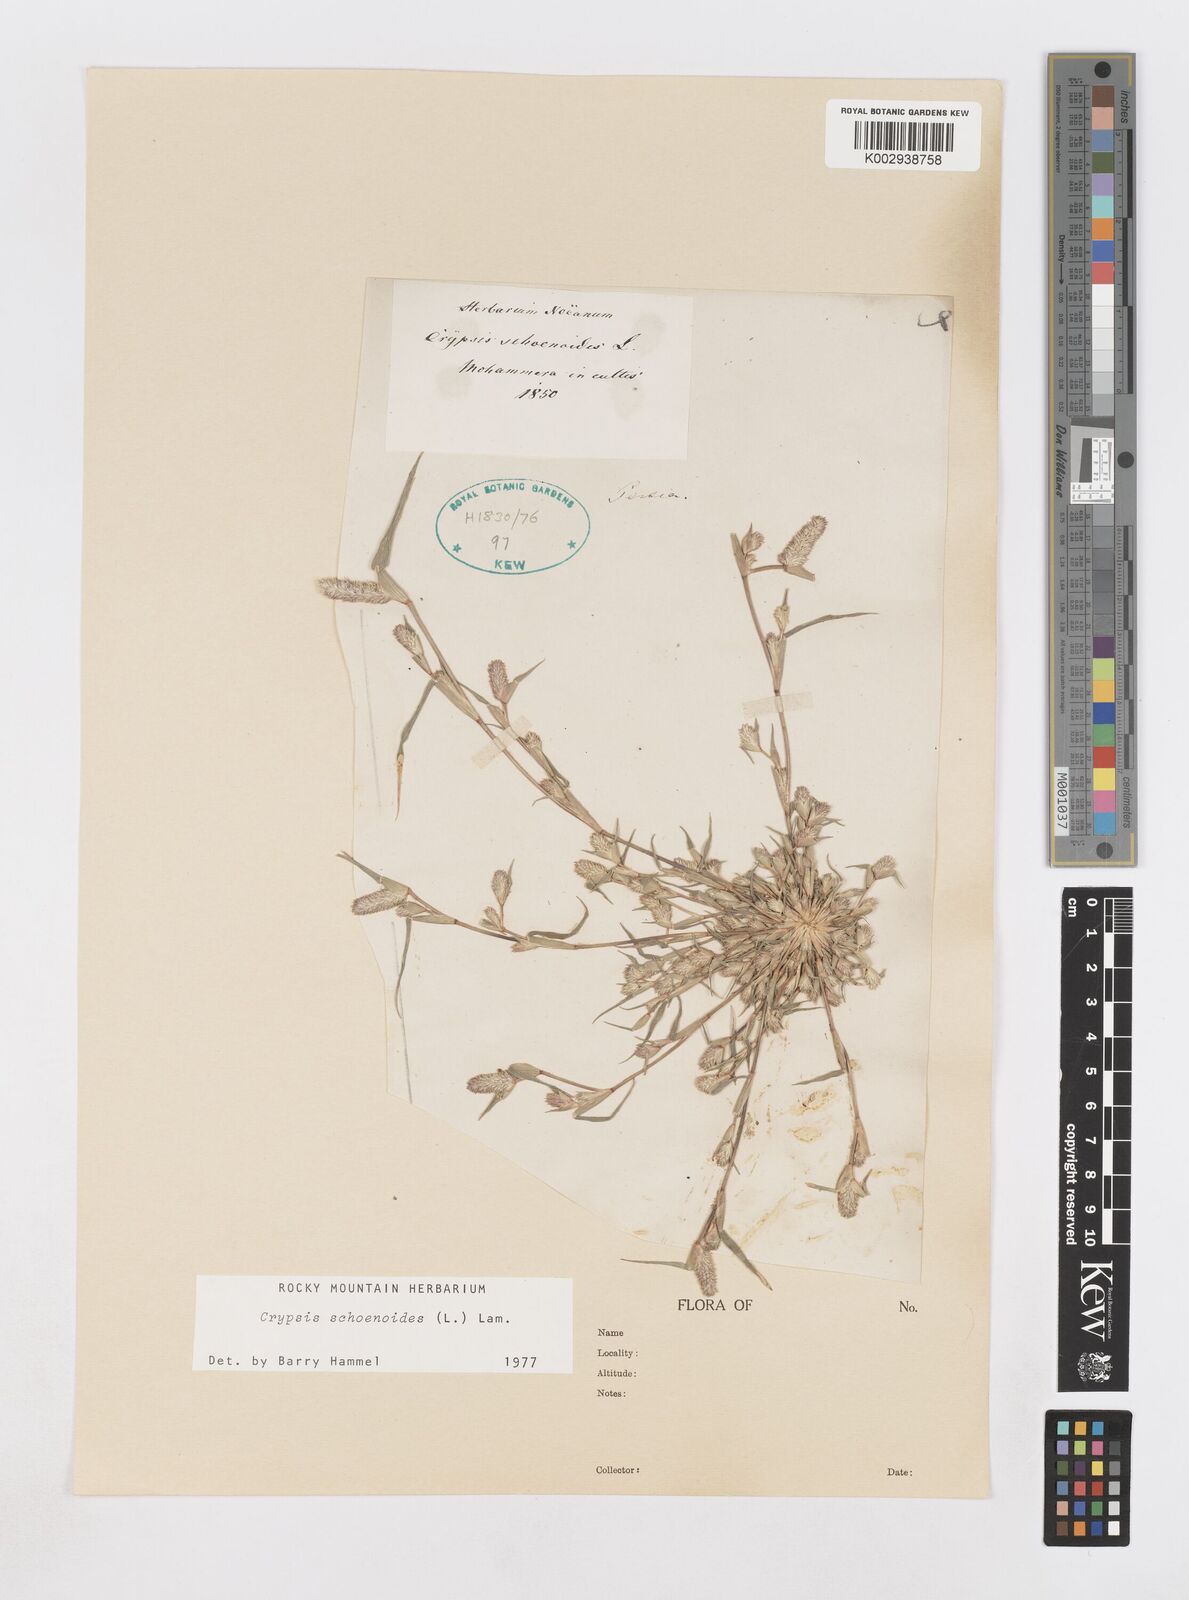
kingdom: Plantae
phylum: Tracheophyta
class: Liliopsida
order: Poales
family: Poaceae
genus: Sporobolus
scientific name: Sporobolus schoenoides
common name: Rush-like timothy
